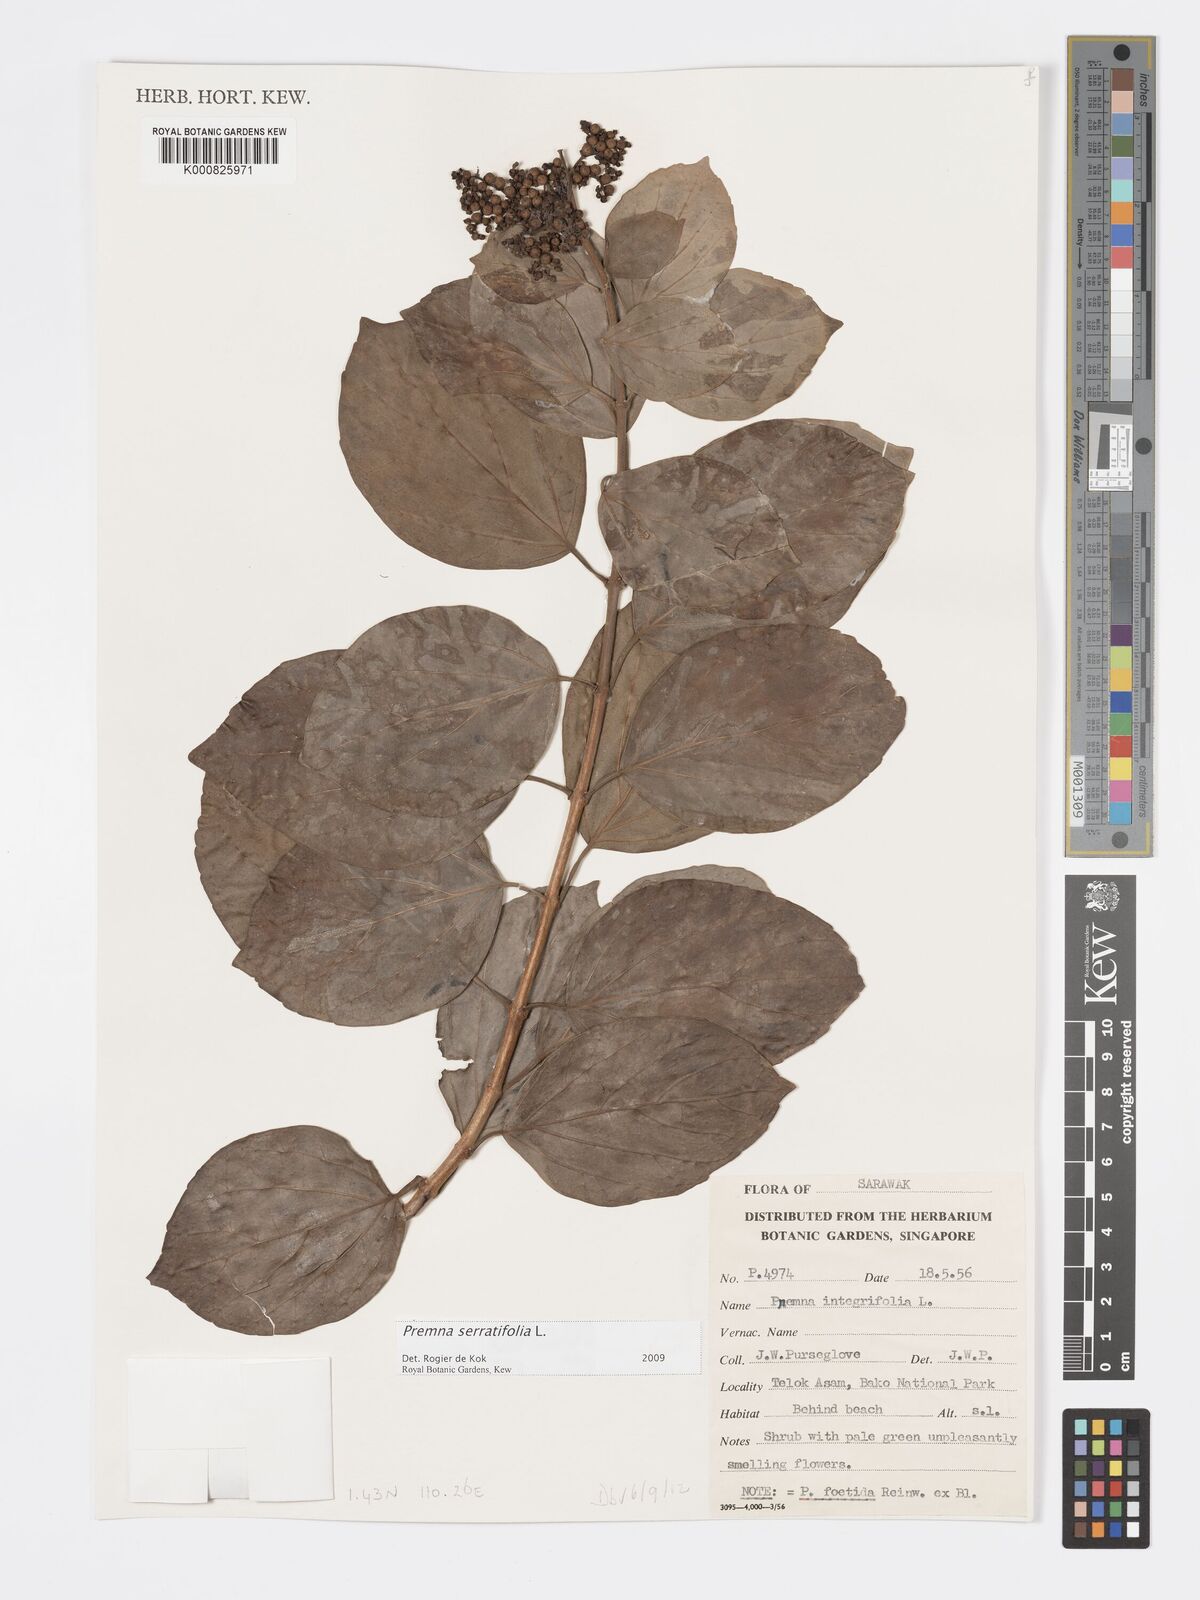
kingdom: Plantae
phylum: Tracheophyta
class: Magnoliopsida
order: Lamiales
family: Lamiaceae
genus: Premna
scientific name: Premna serratifolia
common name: Bastard guelder
